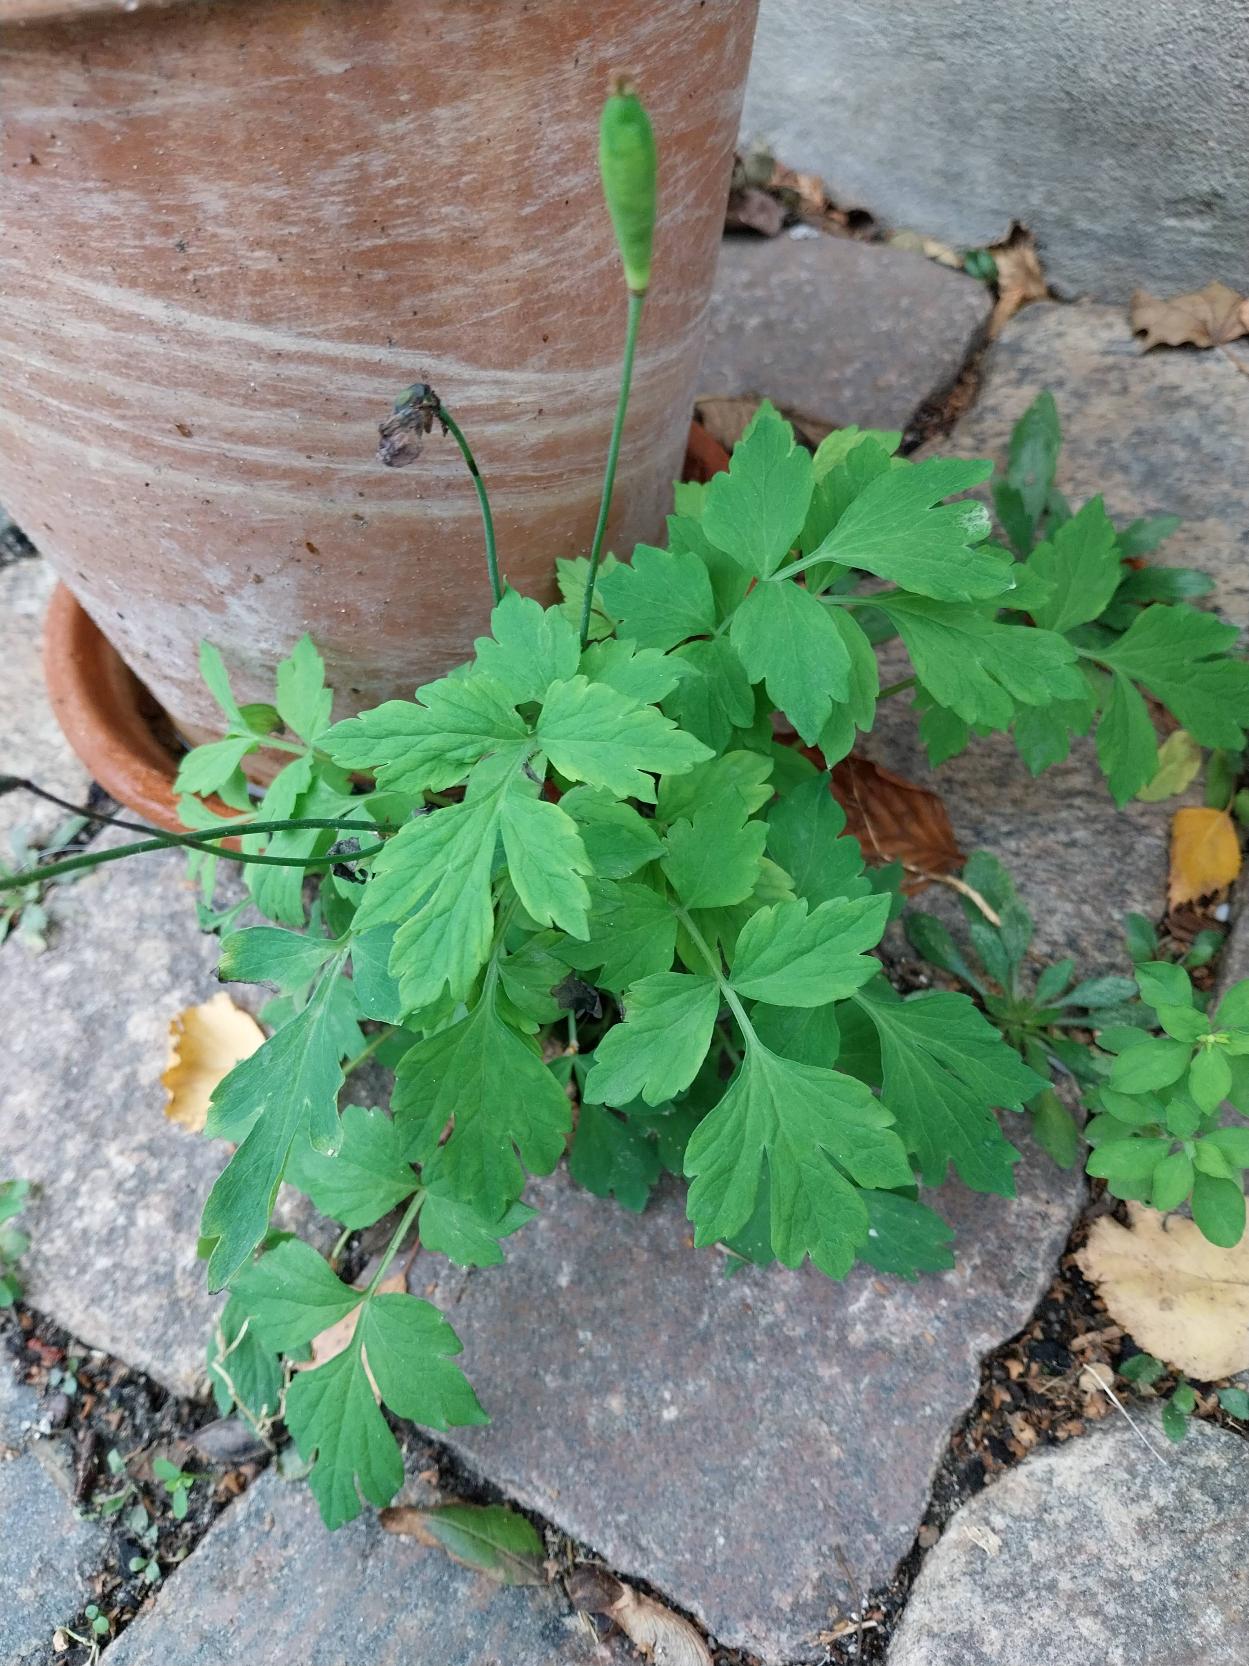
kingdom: Plantae
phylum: Tracheophyta
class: Magnoliopsida
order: Ranunculales
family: Papaveraceae
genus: Papaver
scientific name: Papaver cambricum
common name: Skov-valmue
